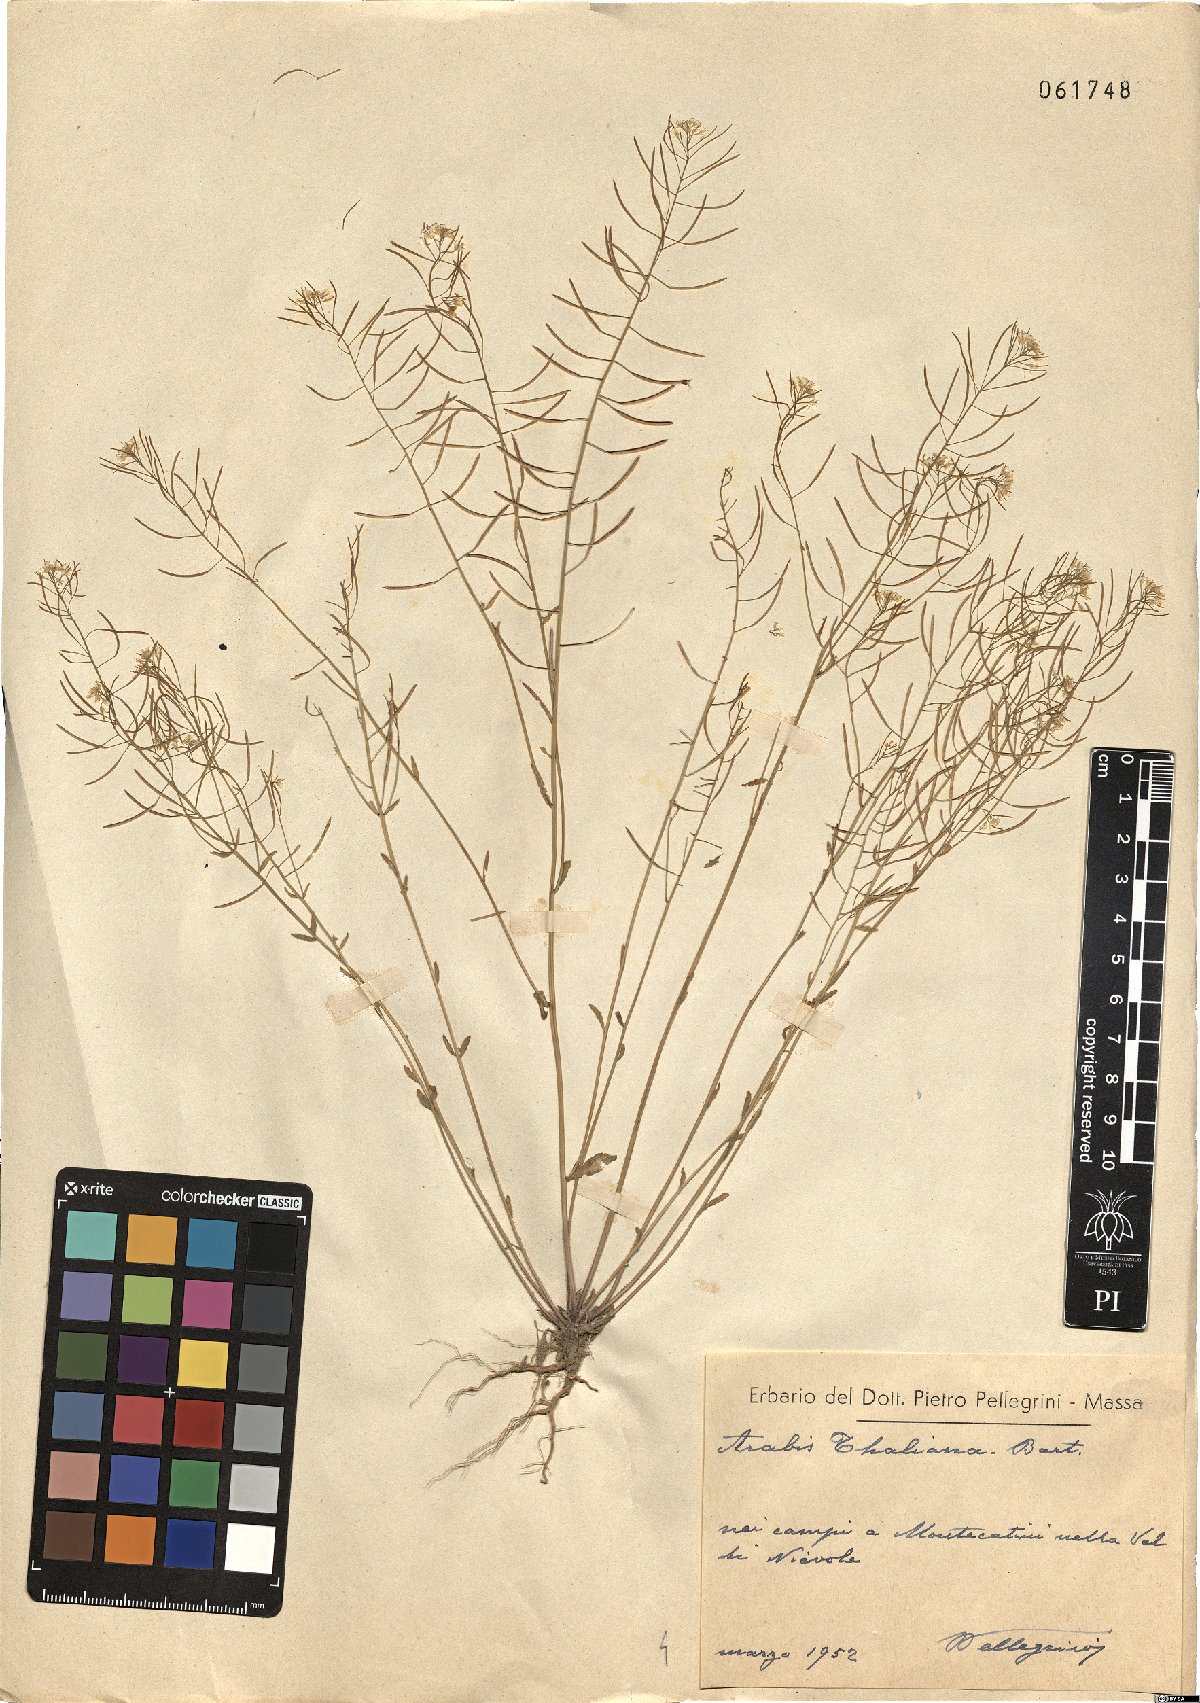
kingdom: Plantae
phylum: Tracheophyta
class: Magnoliopsida
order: Brassicales
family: Brassicaceae
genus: Arabidopsis
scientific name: Arabidopsis thaliana
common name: Thale cress
